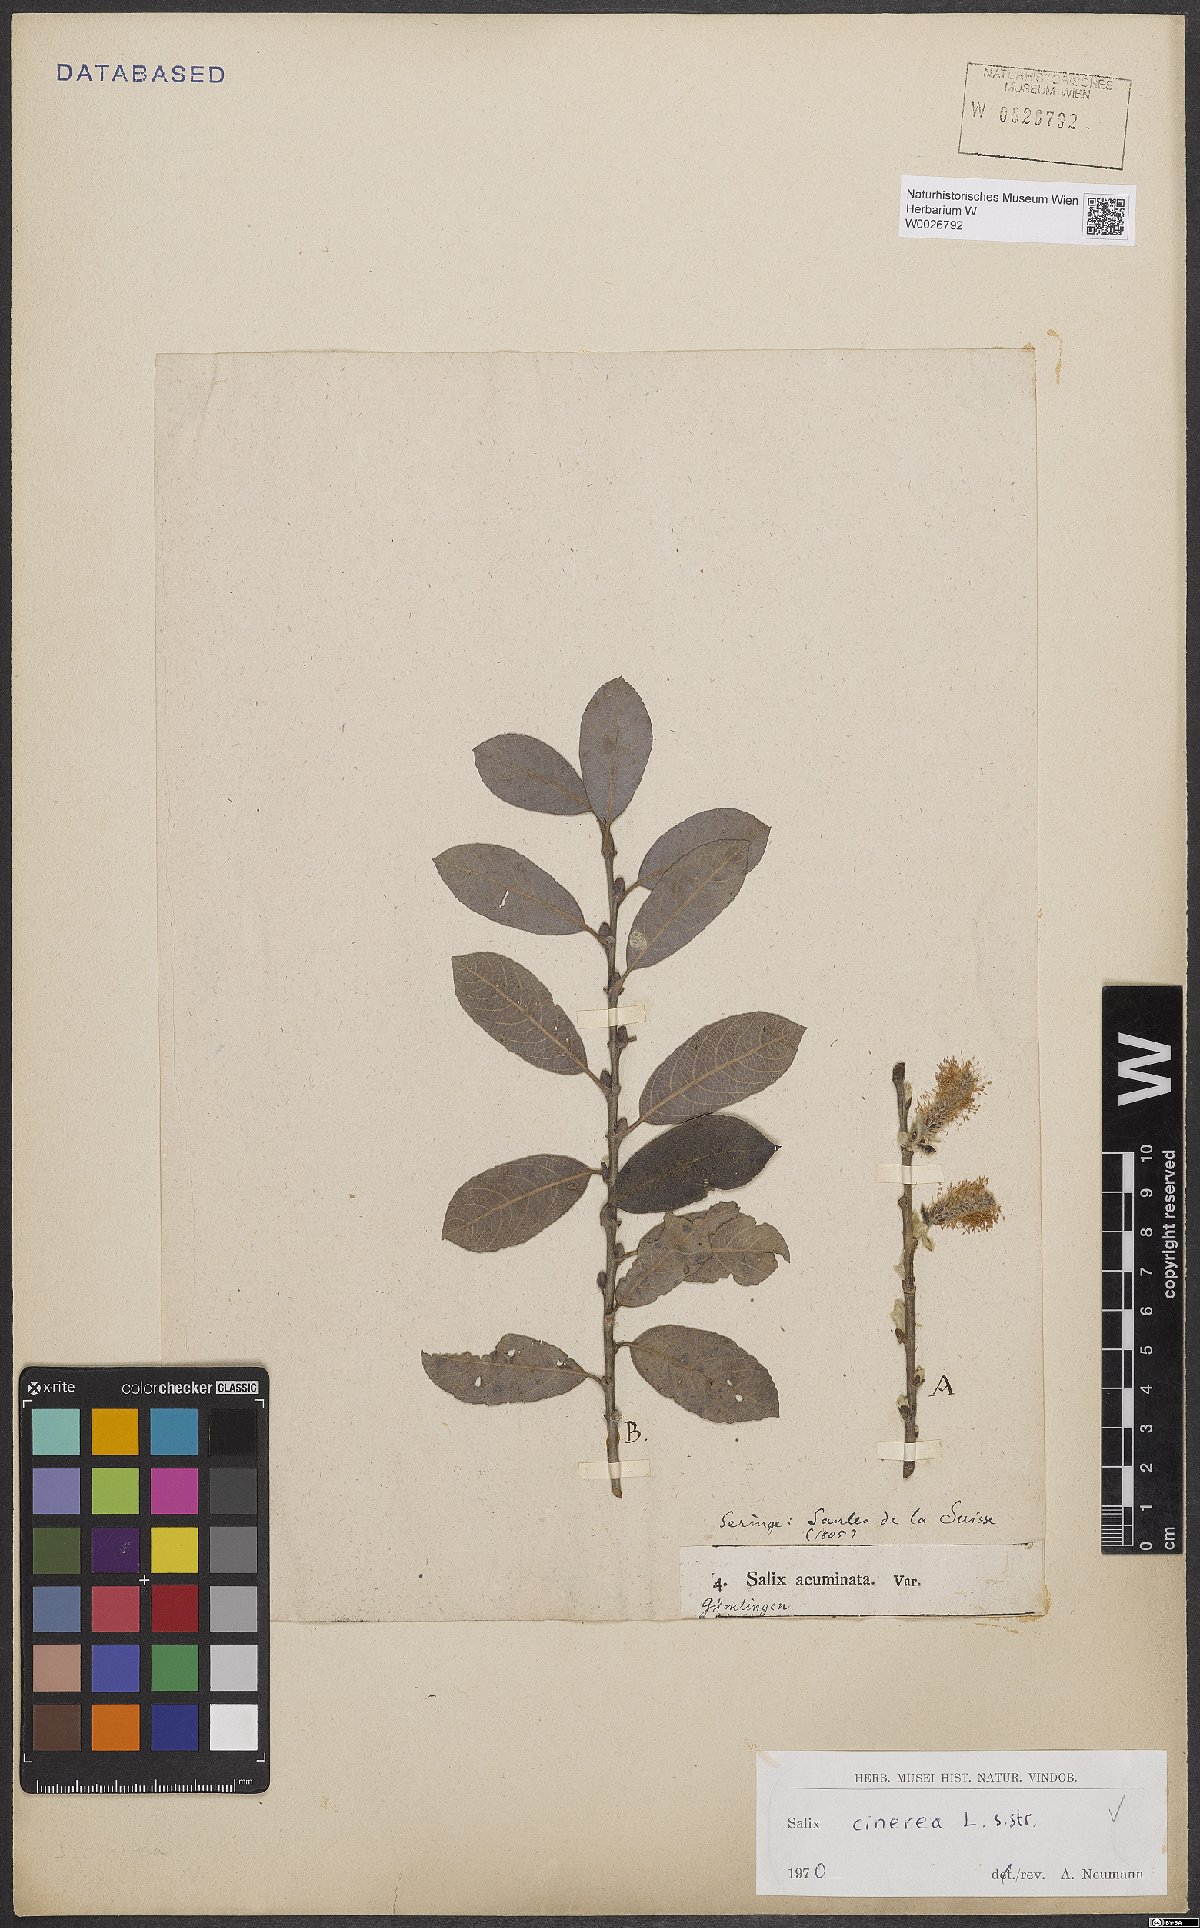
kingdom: Plantae
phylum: Tracheophyta
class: Magnoliopsida
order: Malpighiales
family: Salicaceae
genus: Salix
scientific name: Salix cinerea
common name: Common sallow
